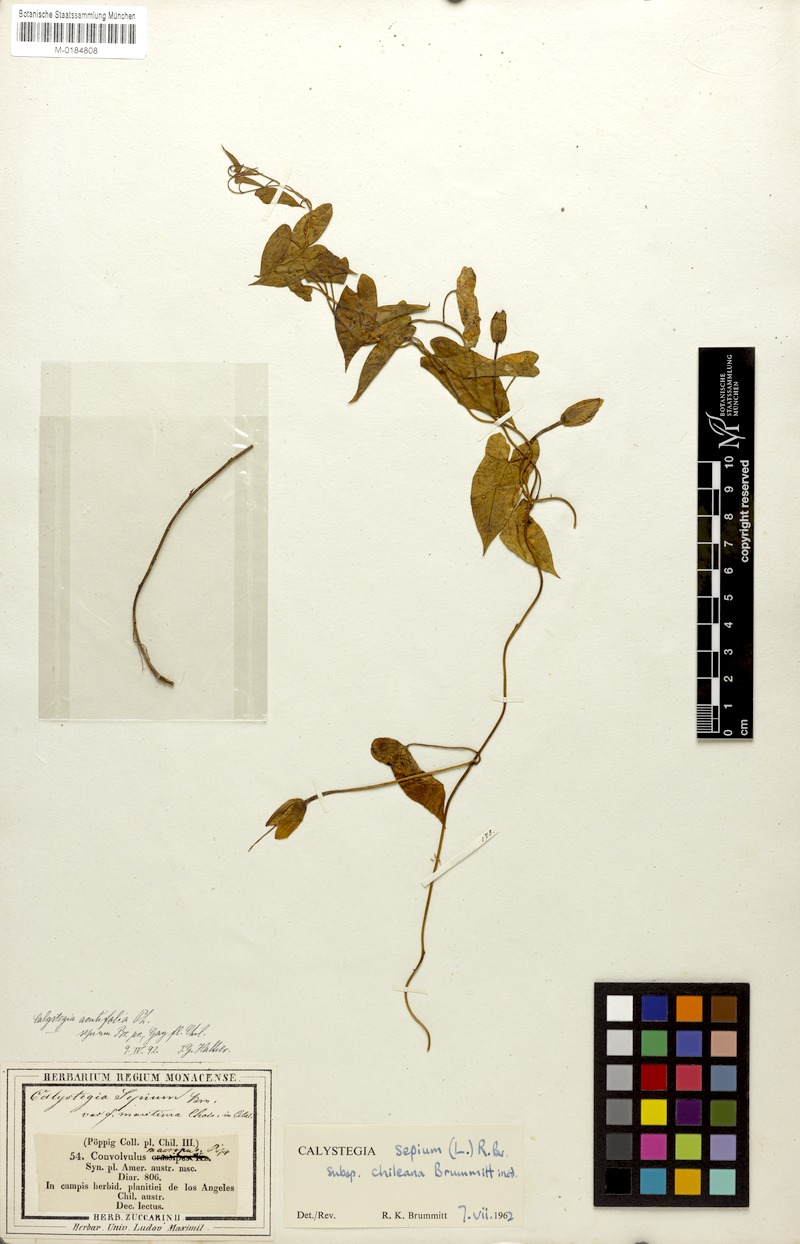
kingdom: Plantae
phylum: Tracheophyta
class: Magnoliopsida
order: Solanales
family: Convolvulaceae
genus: Calystegia
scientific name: Calystegia sepium
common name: Hedge bindweed
